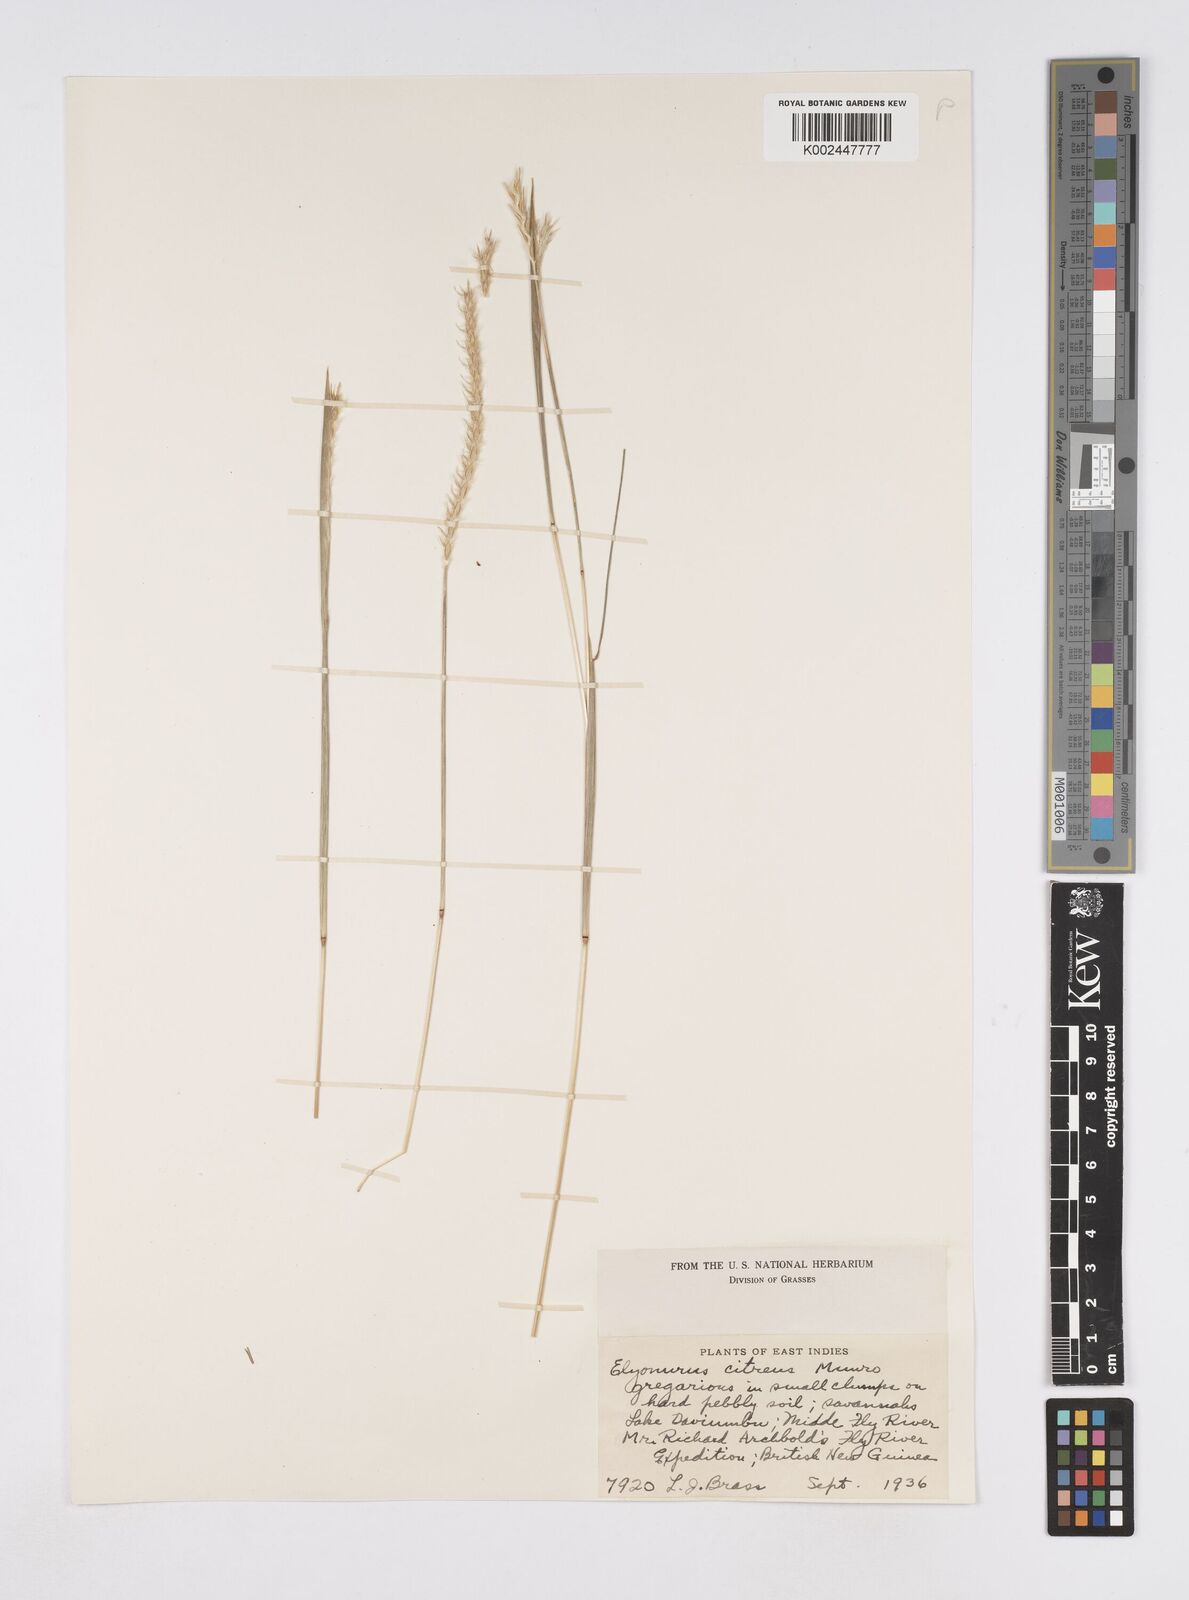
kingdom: Plantae
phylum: Tracheophyta
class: Liliopsida
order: Poales
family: Poaceae
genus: Elionurus
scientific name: Elionurus citreus
